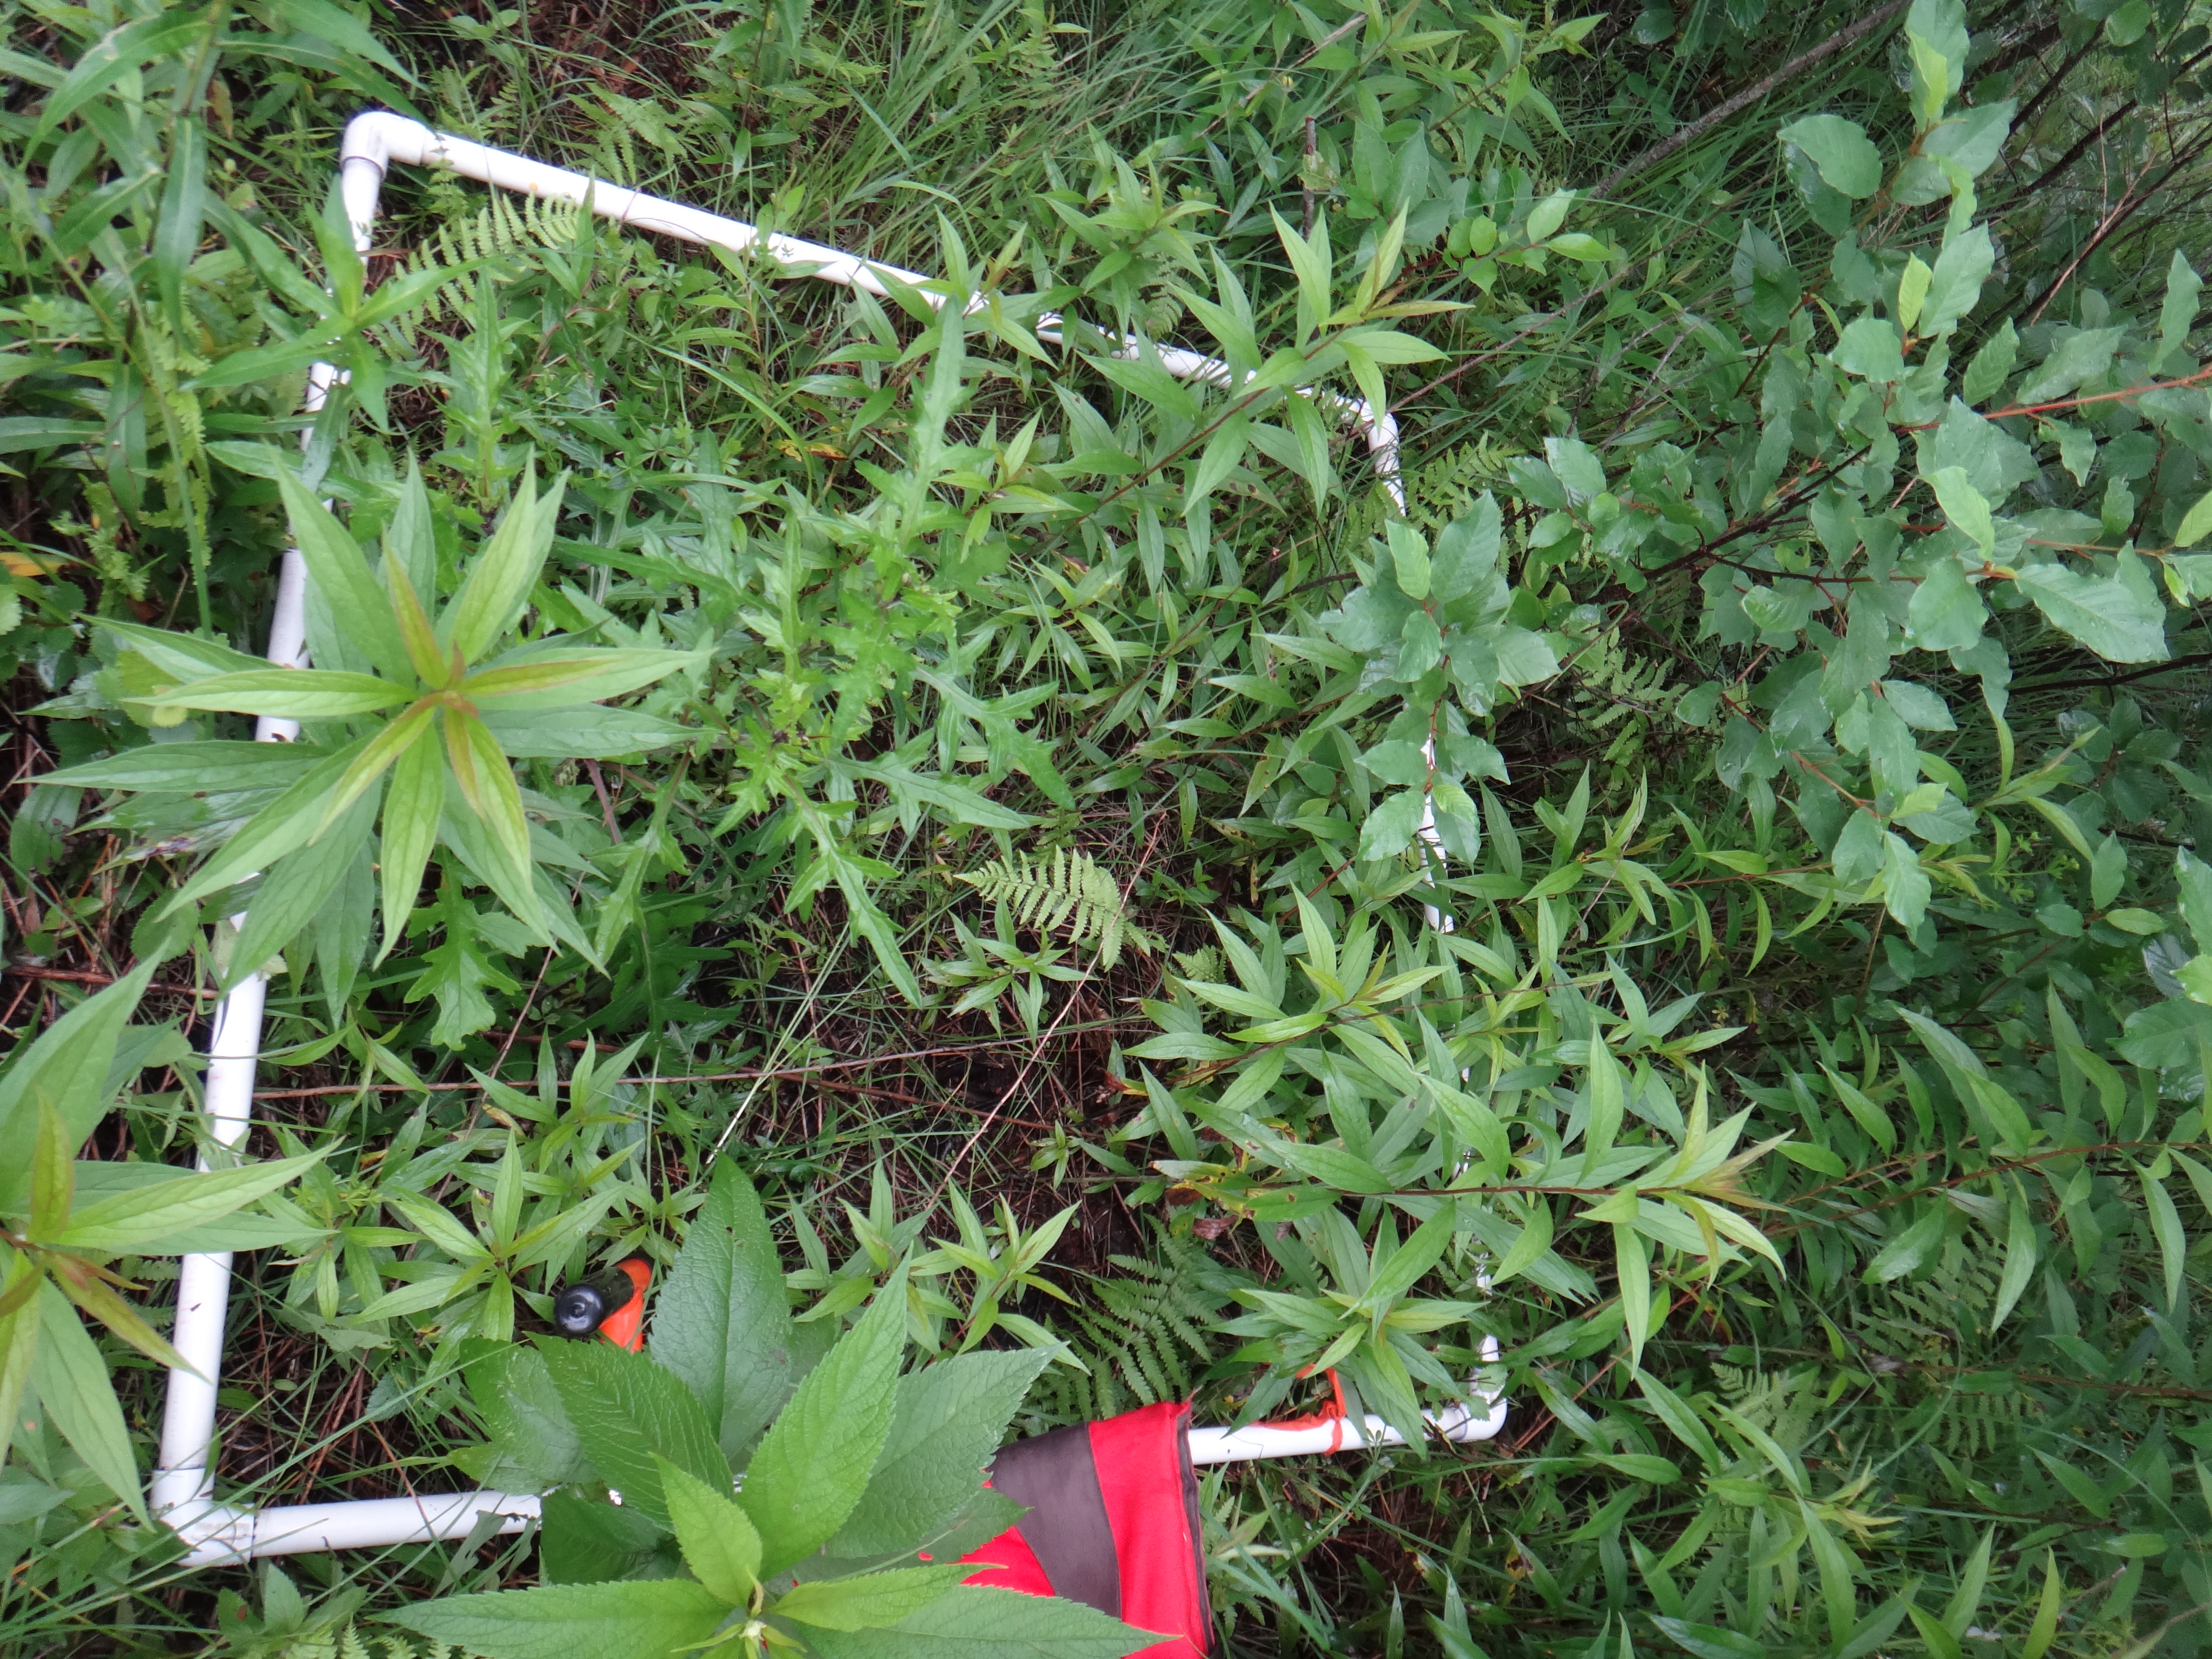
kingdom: Plantae
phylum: Tracheophyta
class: Magnoliopsida
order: Lamiales
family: Lamiaceae
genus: Lycopus
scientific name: Lycopus uniflorus
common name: Northern bugleweed
